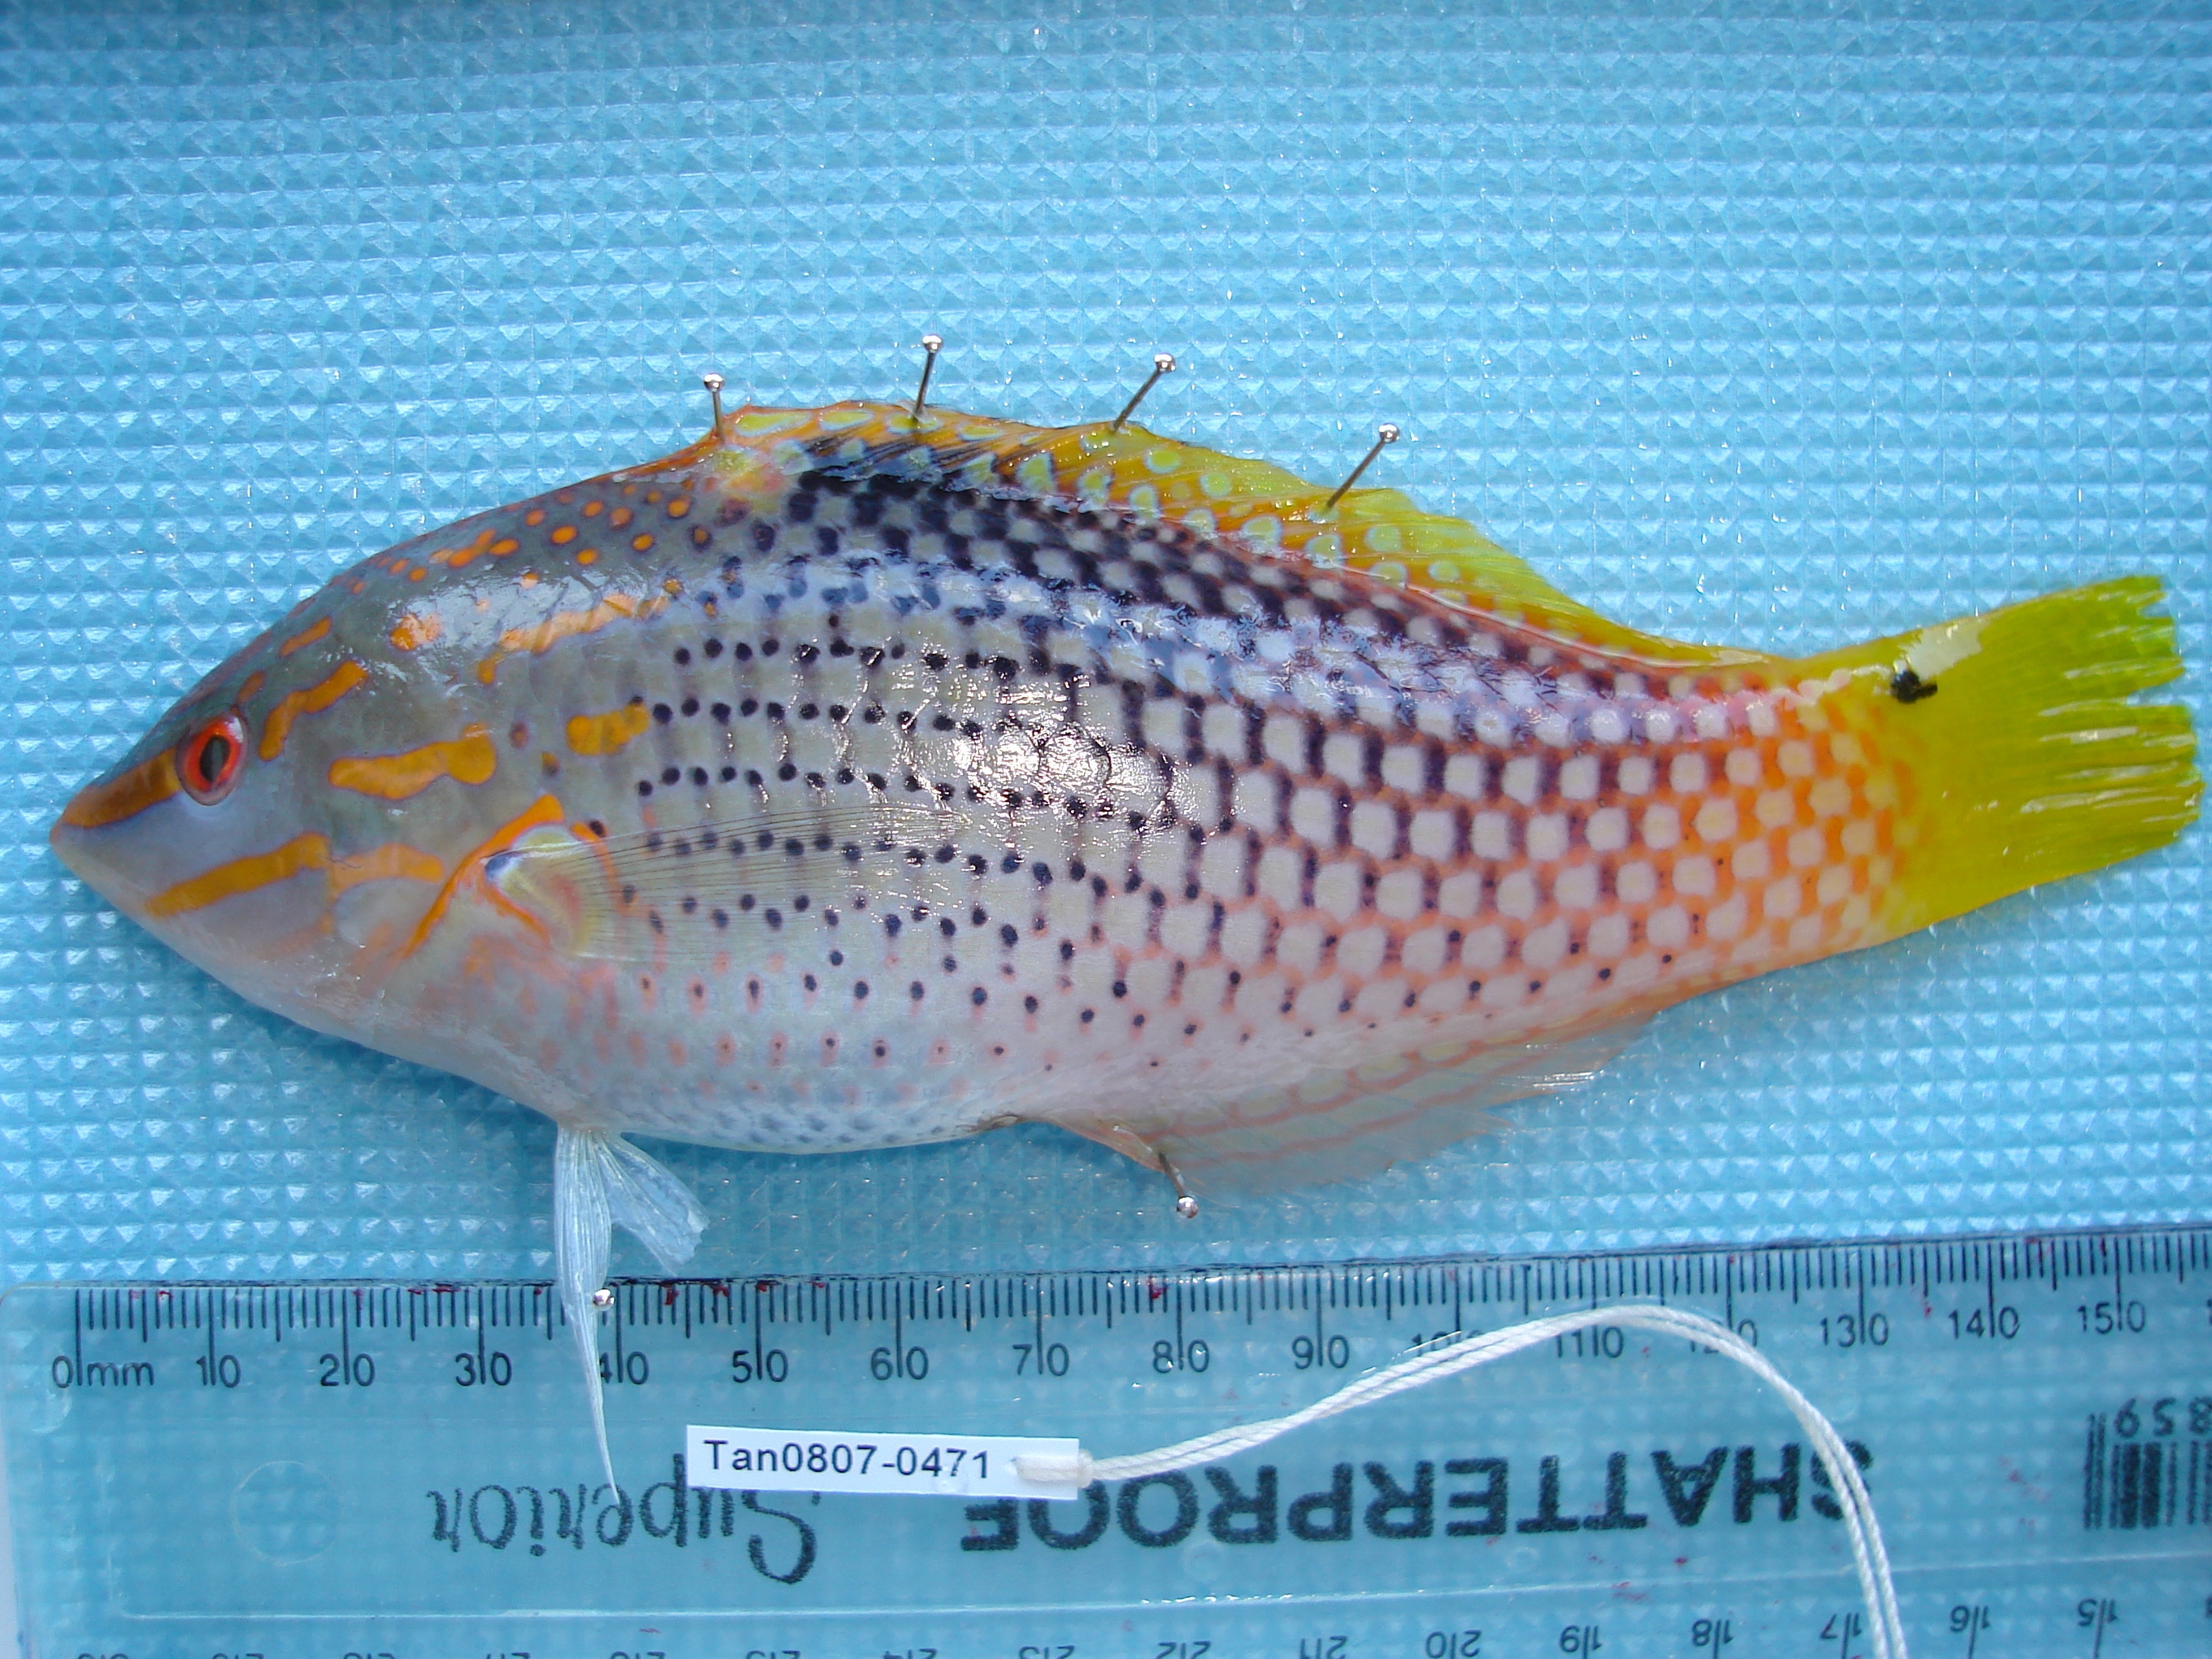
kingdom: Animalia
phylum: Chordata
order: Perciformes
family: Labridae
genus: Halichoeres
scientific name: Halichoeres hortulanus
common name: Checkerboard wrasse
